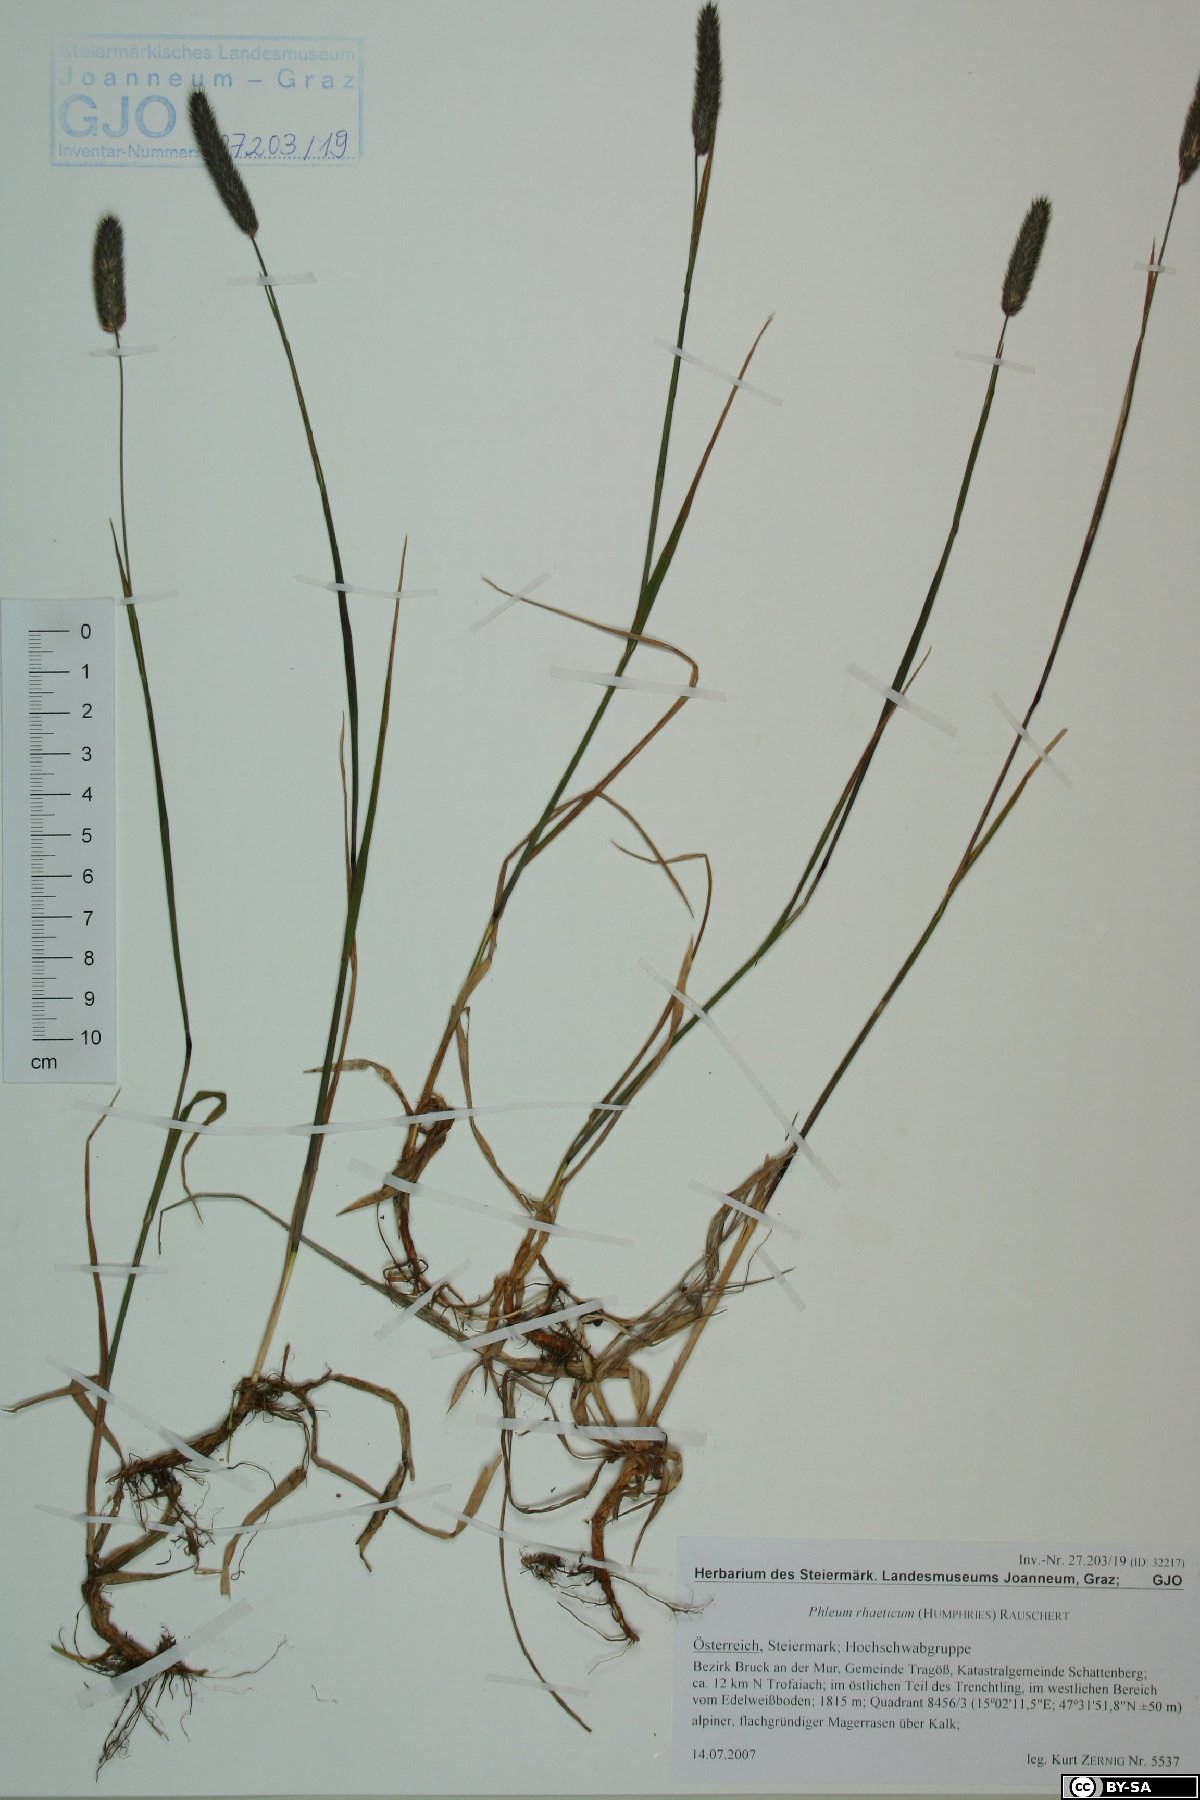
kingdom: Plantae
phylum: Tracheophyta
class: Liliopsida
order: Poales
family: Poaceae
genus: Phleum
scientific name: Phleum alpinum
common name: Alpine cat's-tail
